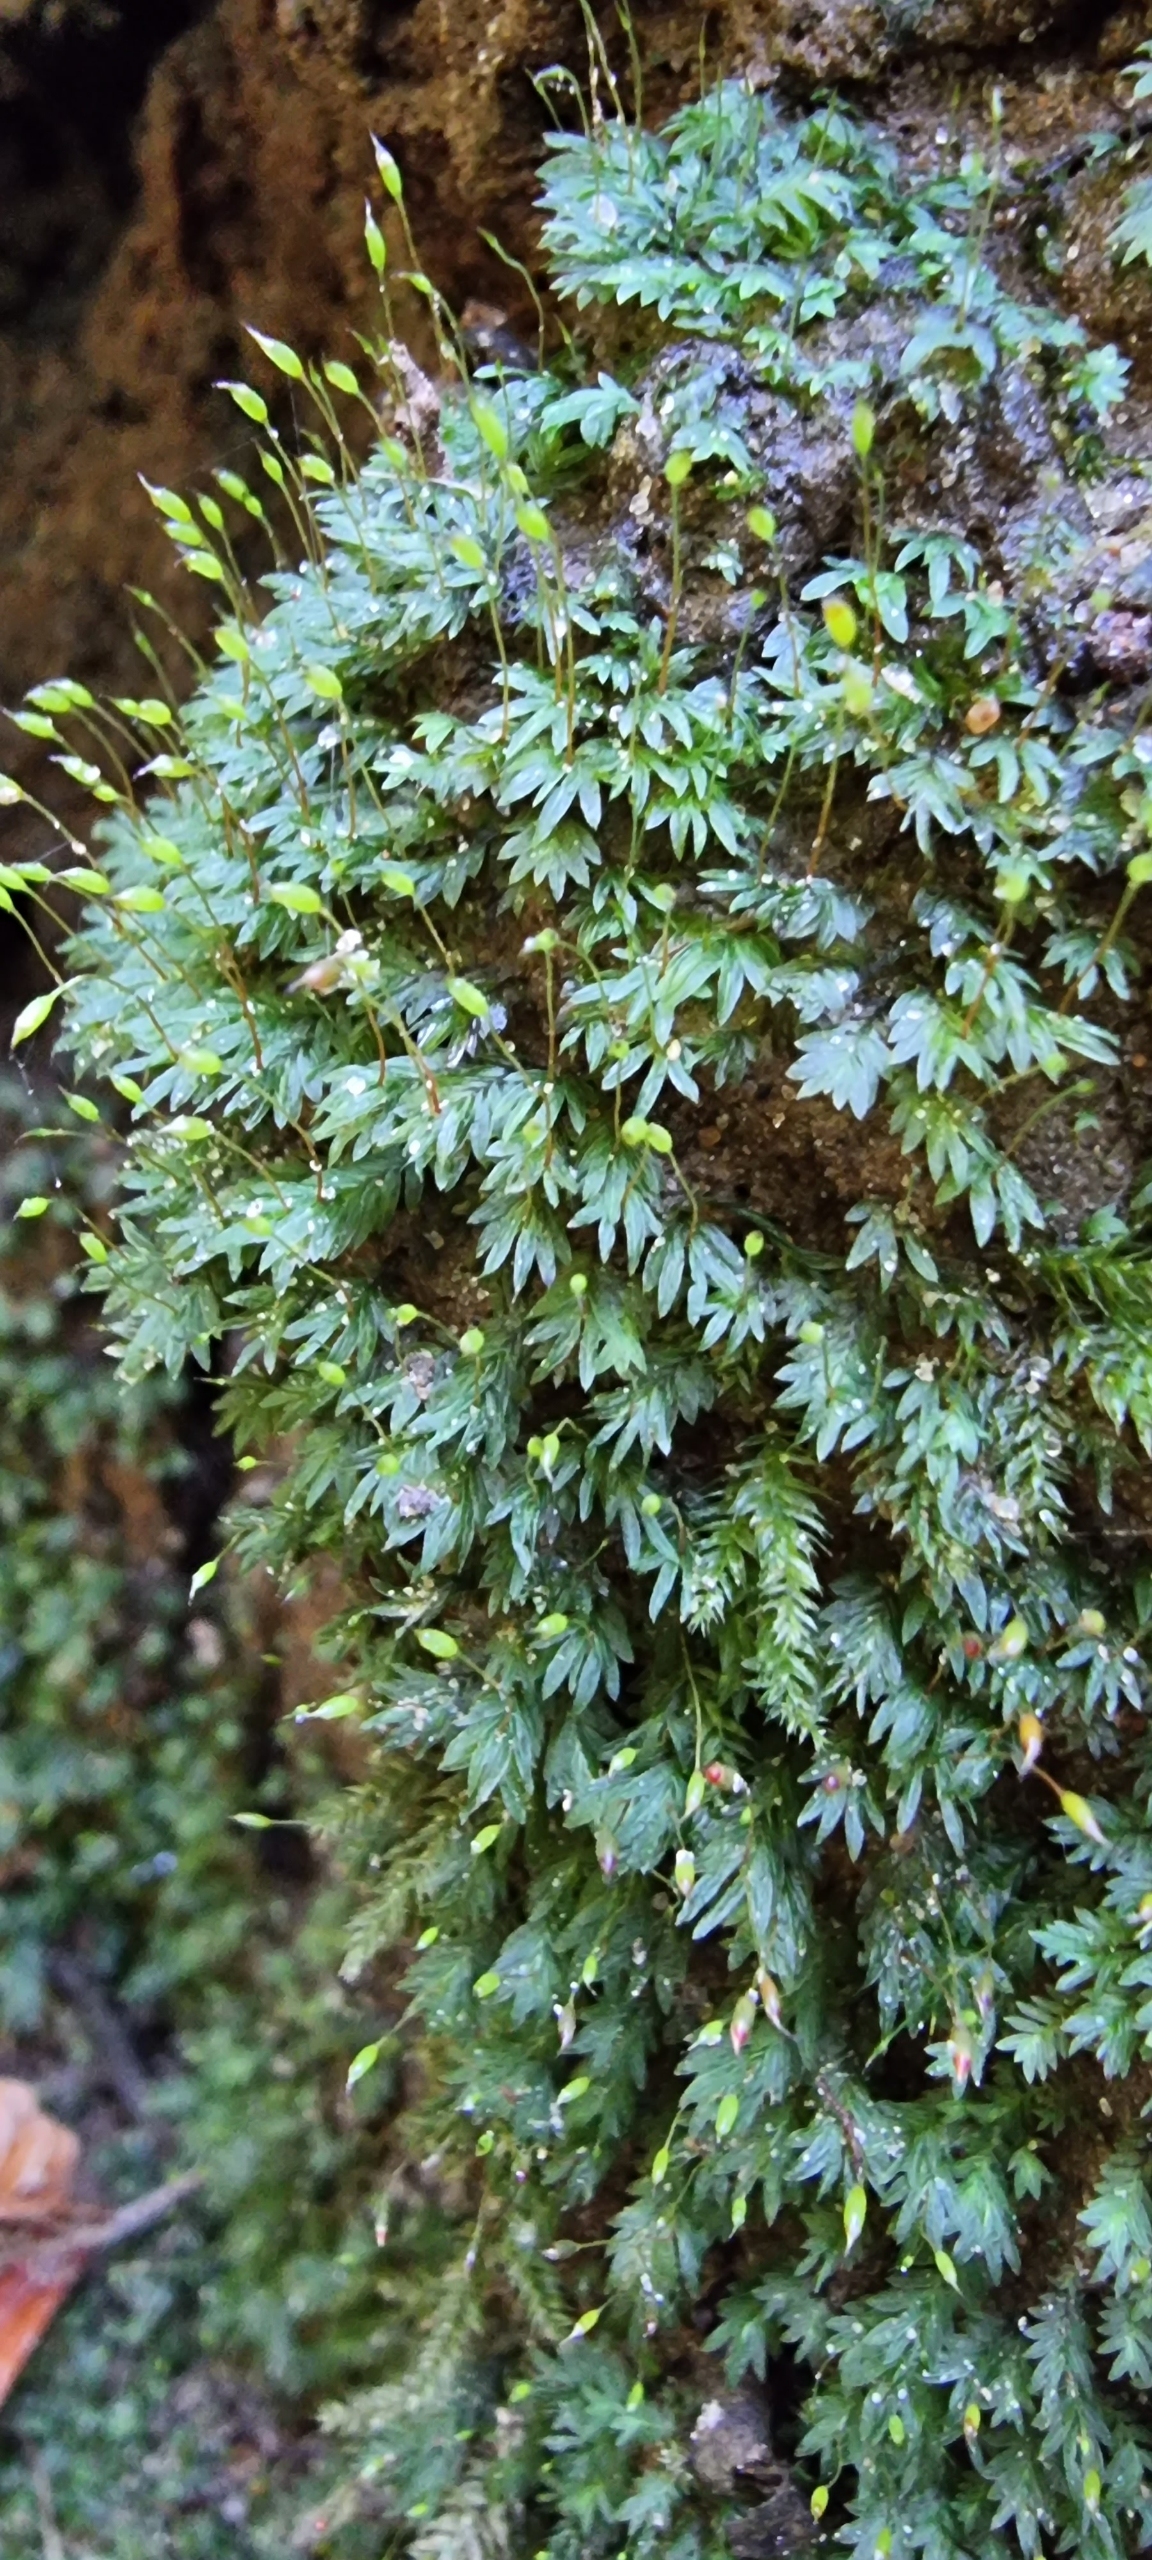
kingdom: Plantae
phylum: Bryophyta
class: Bryopsida
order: Dicranales
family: Fissidentaceae
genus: Fissidens
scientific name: Fissidens bryoides
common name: Top-rademos
